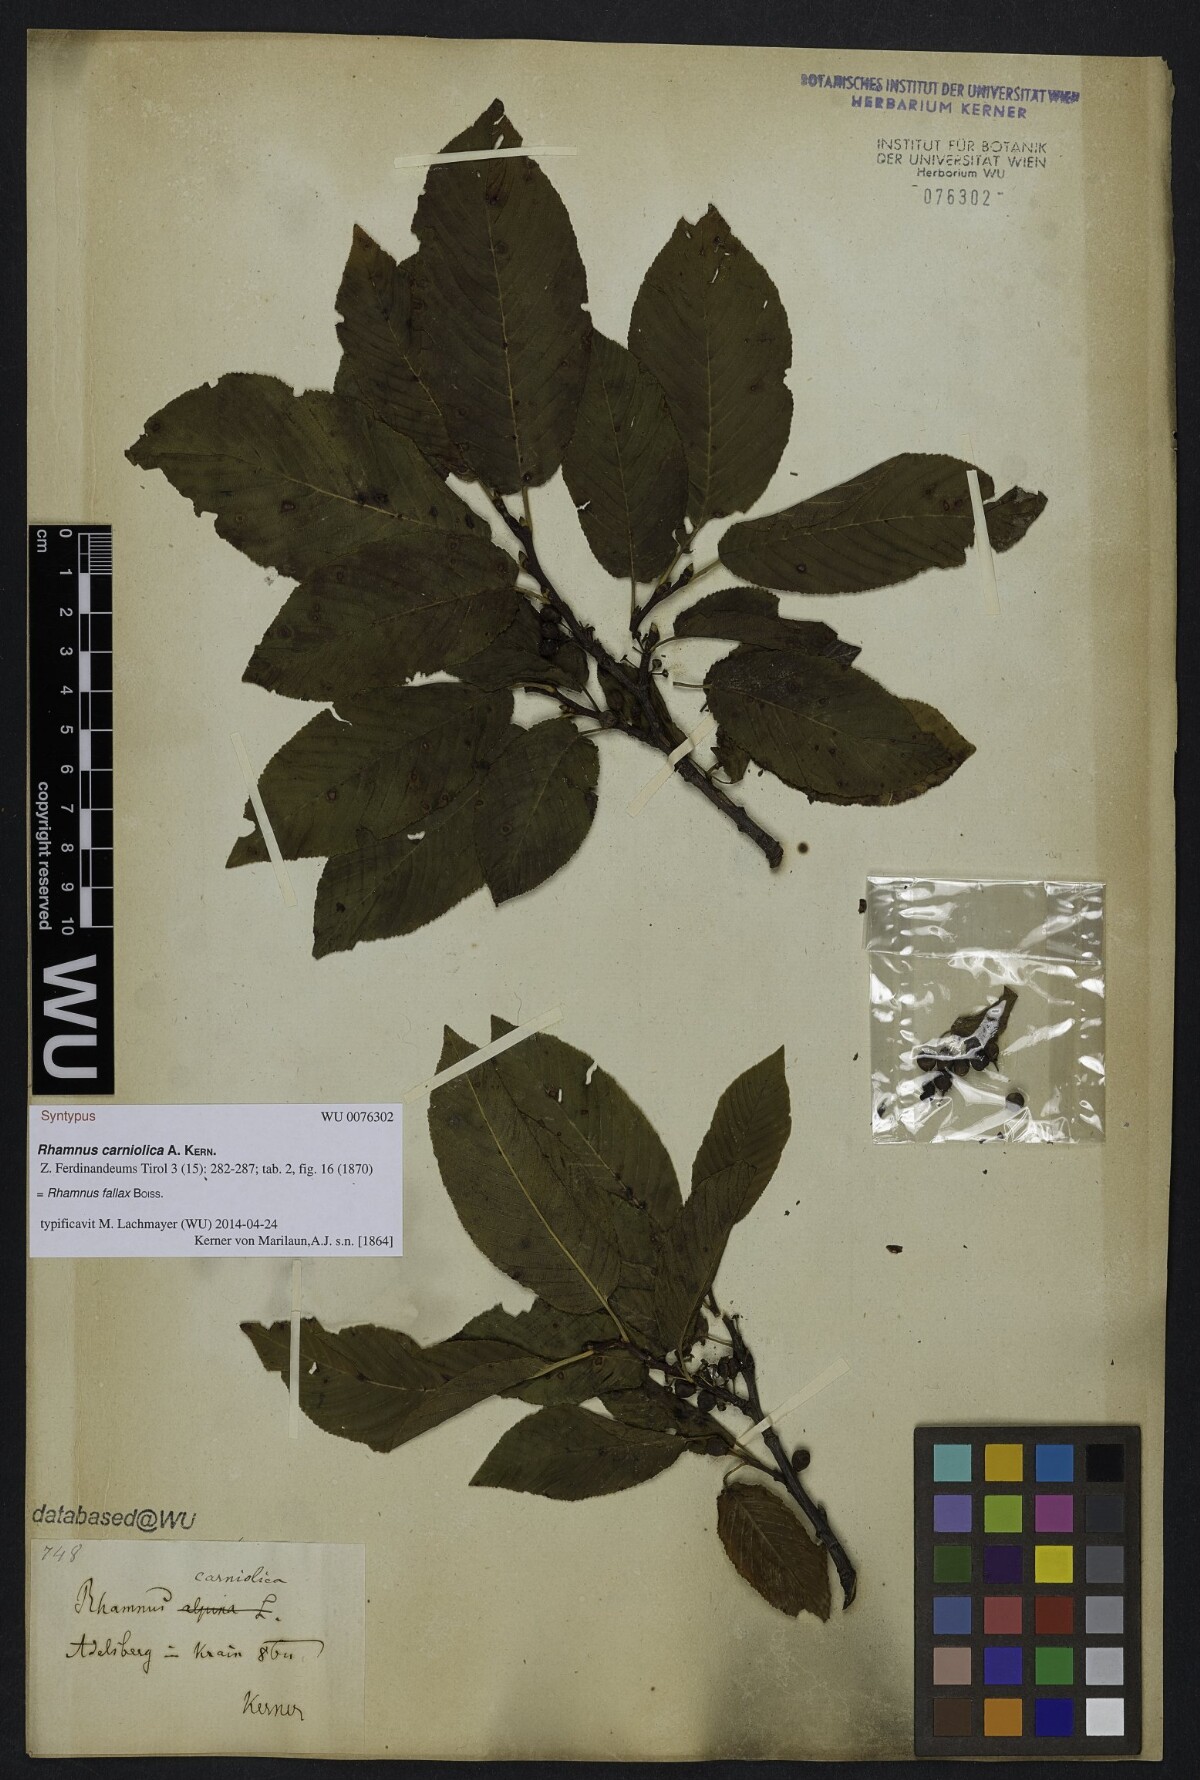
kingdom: Plantae
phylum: Tracheophyta
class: Magnoliopsida
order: Rosales
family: Rhamnaceae
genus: Rhamnus
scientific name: Rhamnus saxatilis
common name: Rock buckthorn
